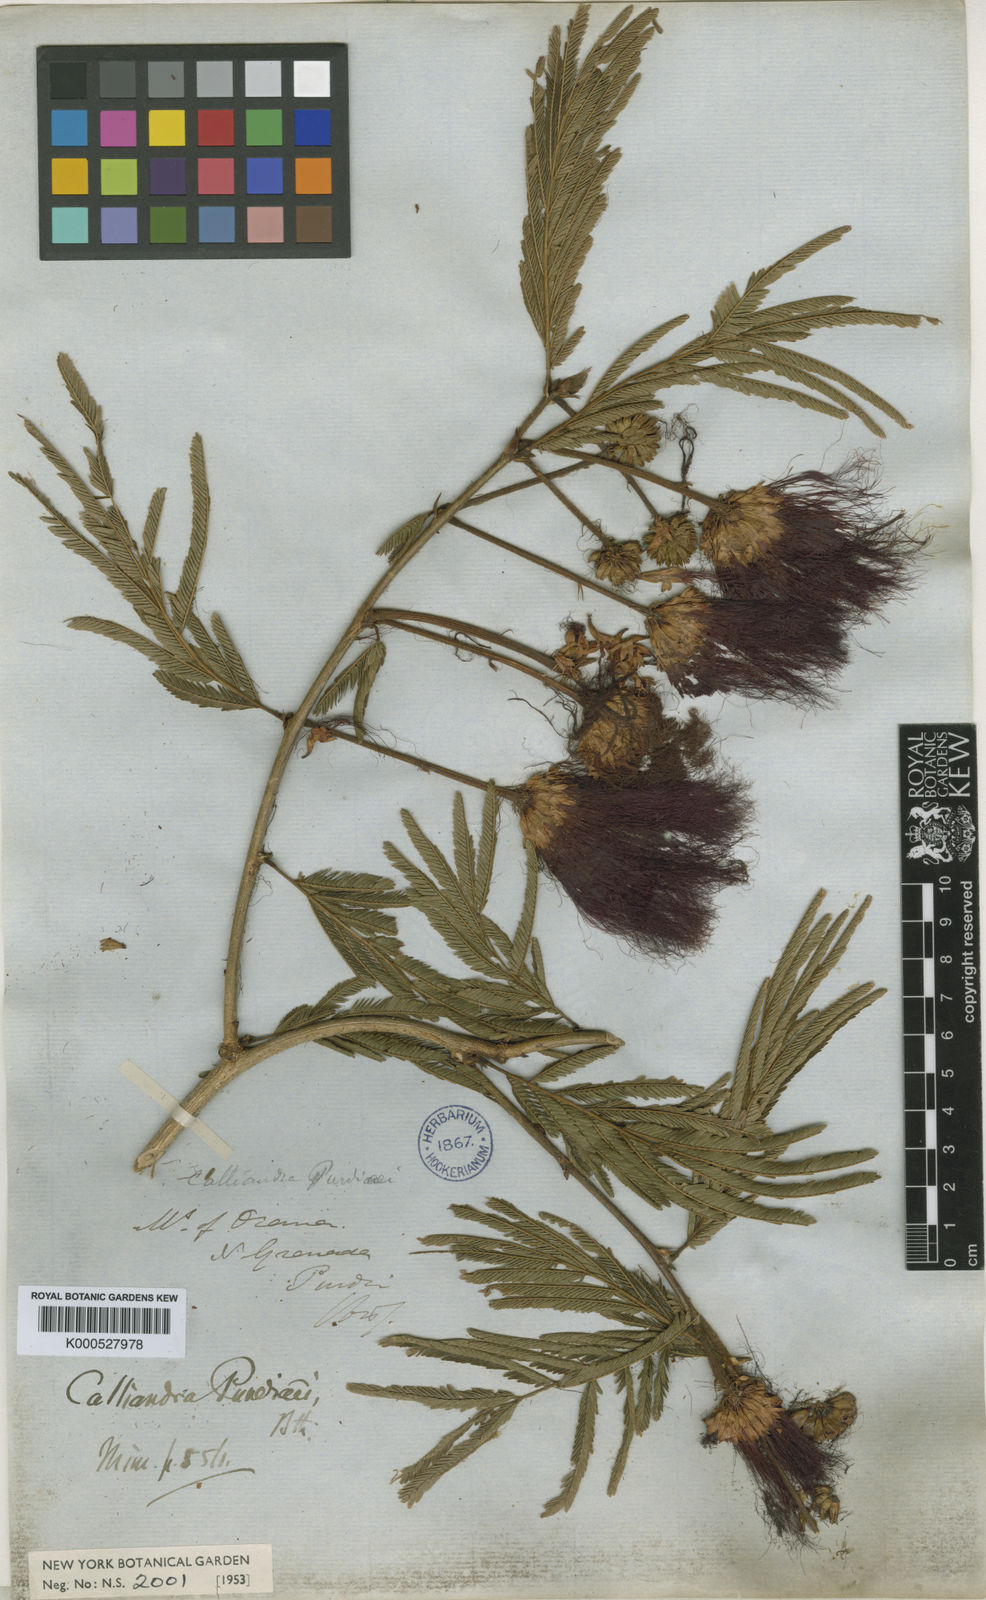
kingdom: Plantae
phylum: Tracheophyta
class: Magnoliopsida
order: Fabales
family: Fabaceae
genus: Calliandra
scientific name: Calliandra purdiei
